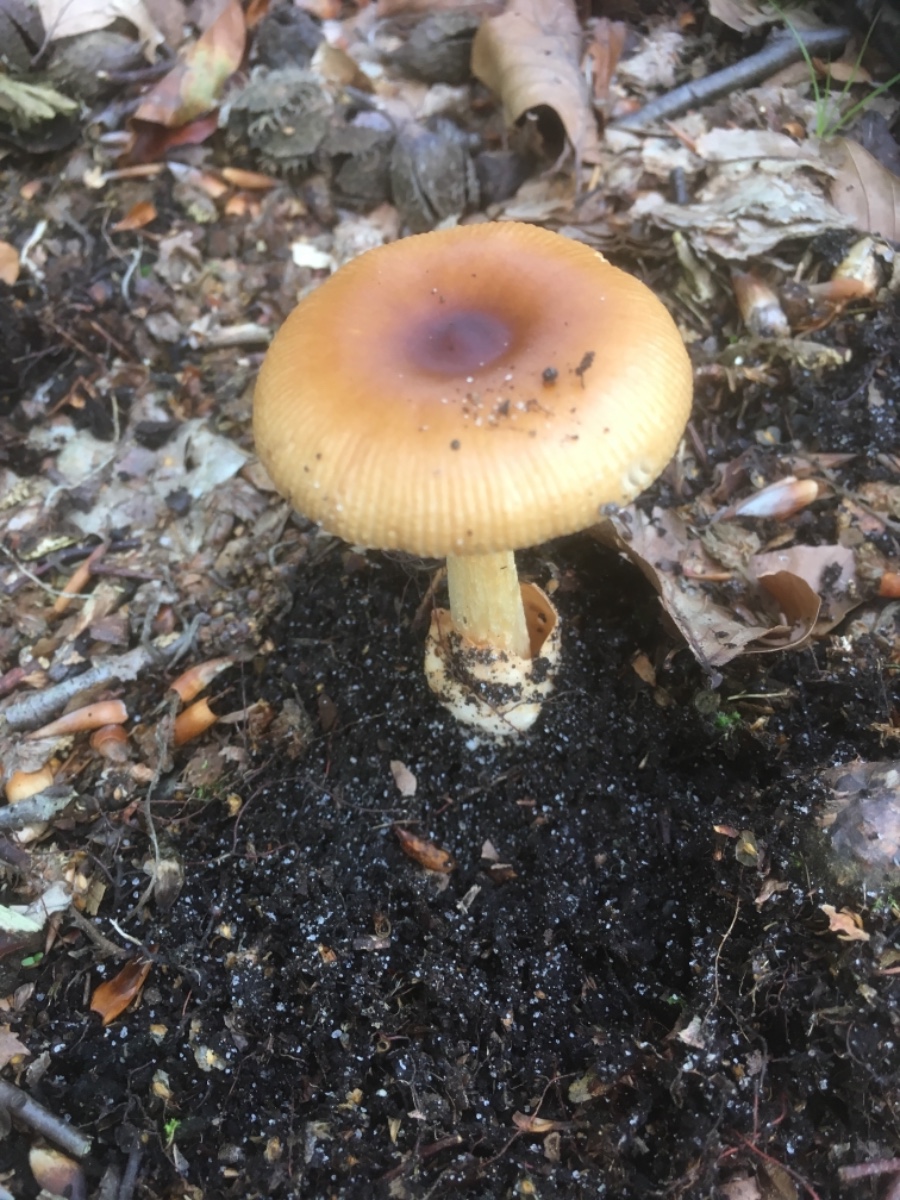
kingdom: Fungi
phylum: Basidiomycota
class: Agaricomycetes
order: Agaricales
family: Amanitaceae
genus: Amanita
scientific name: Amanita fulva
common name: brun kam-fluesvamp
